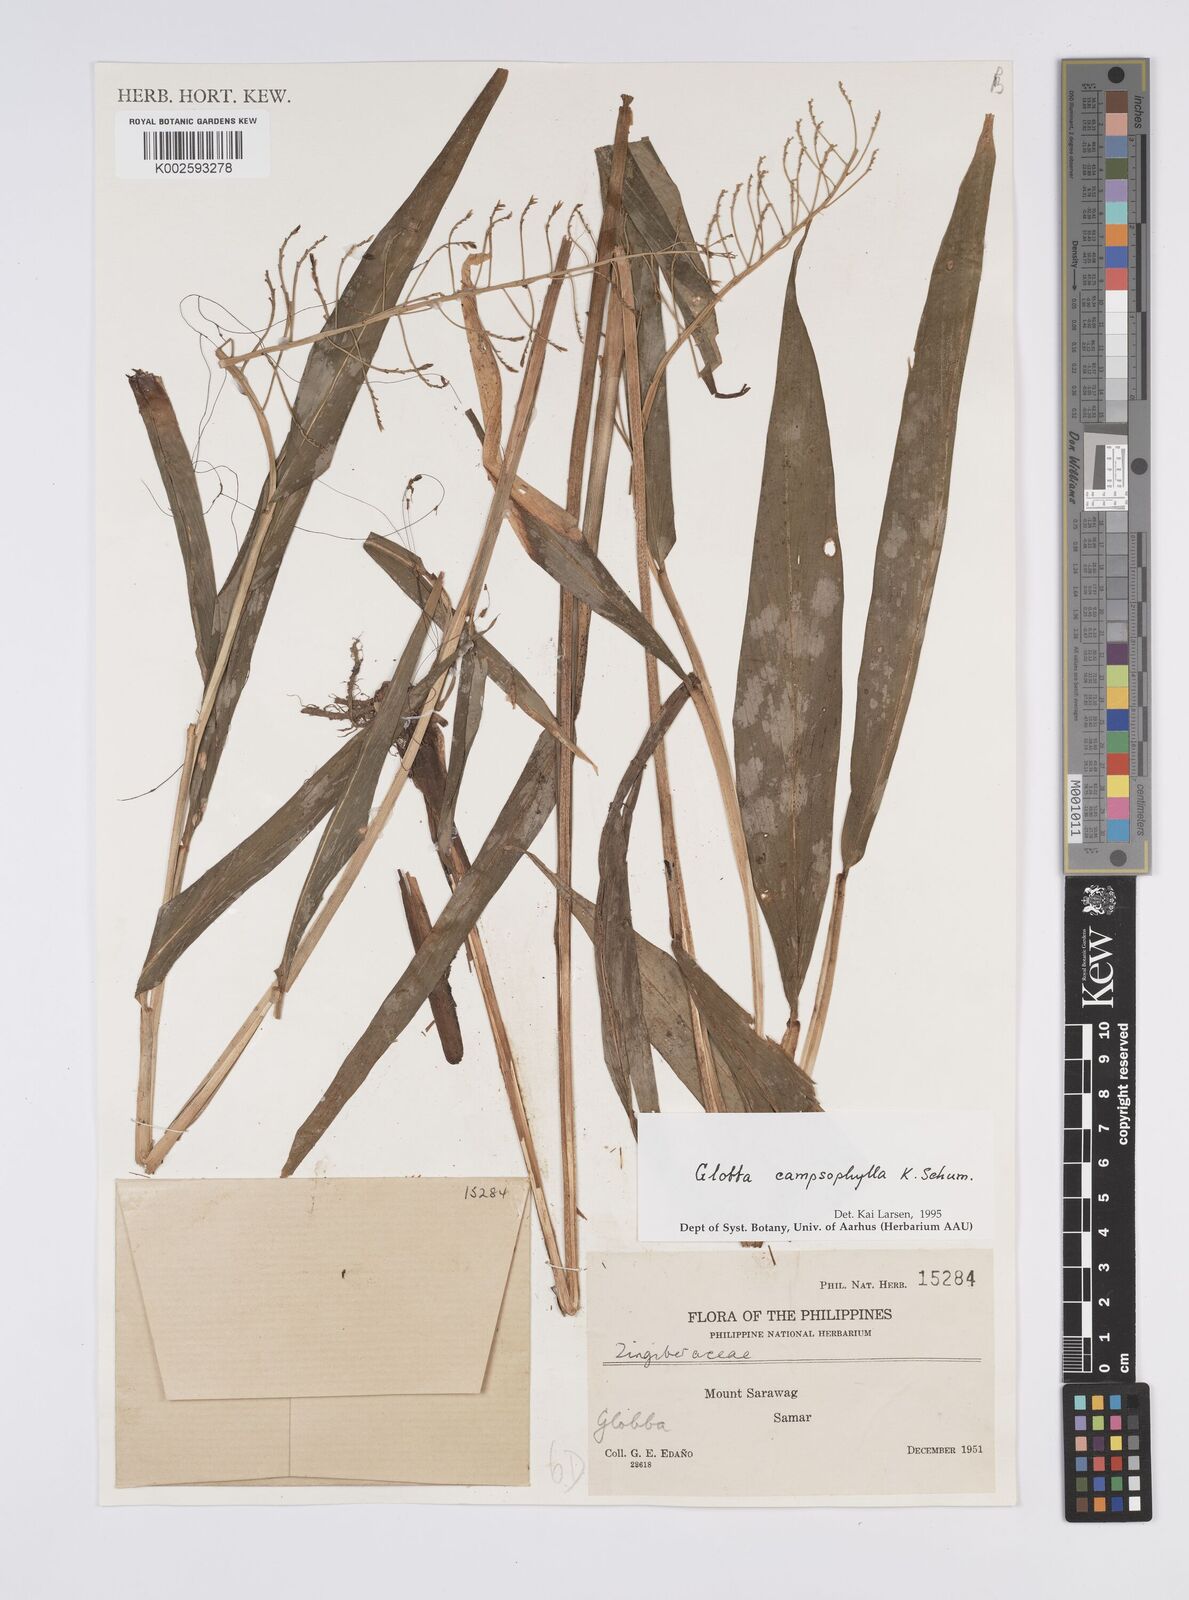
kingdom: Plantae
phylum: Tracheophyta
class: Liliopsida
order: Zingiberales
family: Zingiberaceae
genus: Globba
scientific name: Globba campsophylla
